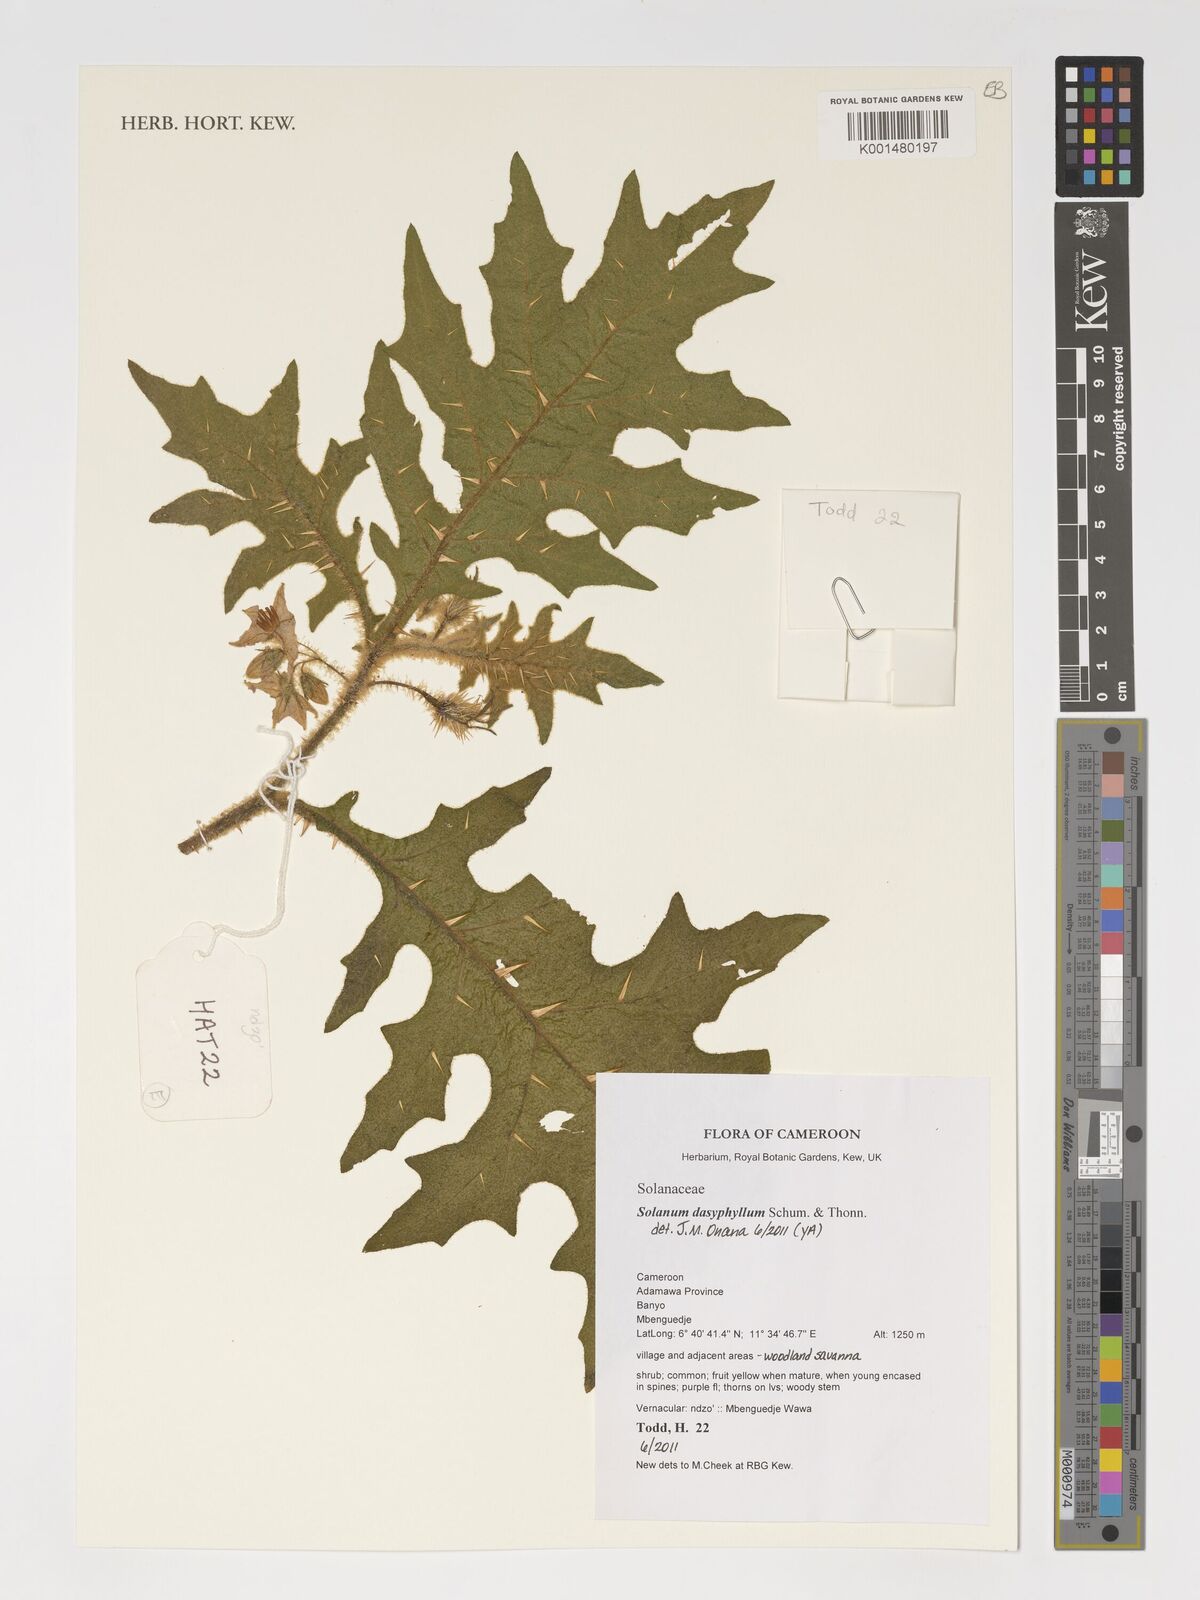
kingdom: Plantae
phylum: Tracheophyta
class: Magnoliopsida
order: Solanales
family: Solanaceae
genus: Solanum
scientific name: Solanum dasyphyllum
